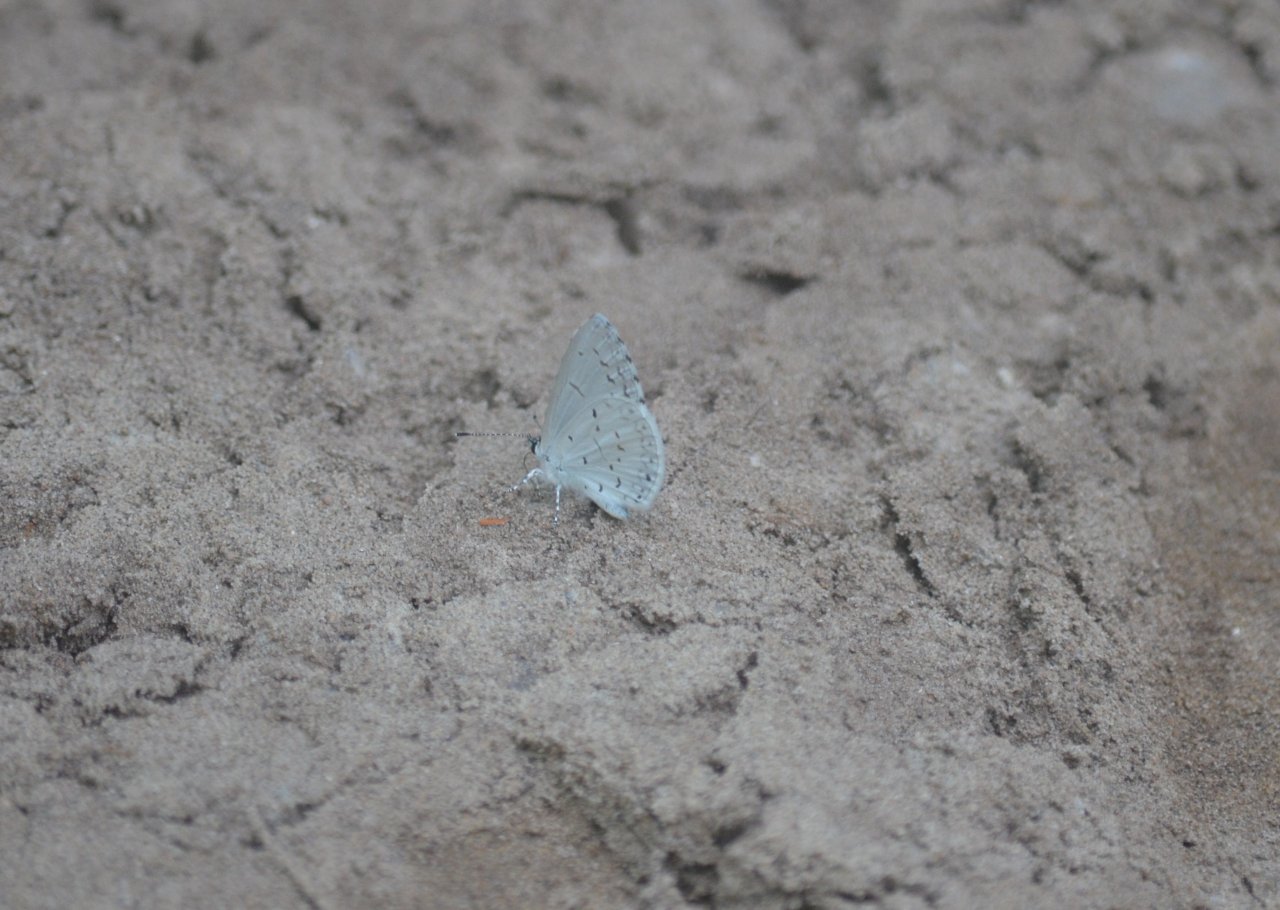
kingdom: Animalia
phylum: Arthropoda
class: Insecta
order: Lepidoptera
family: Lycaenidae
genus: Celastrina
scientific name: Celastrina
